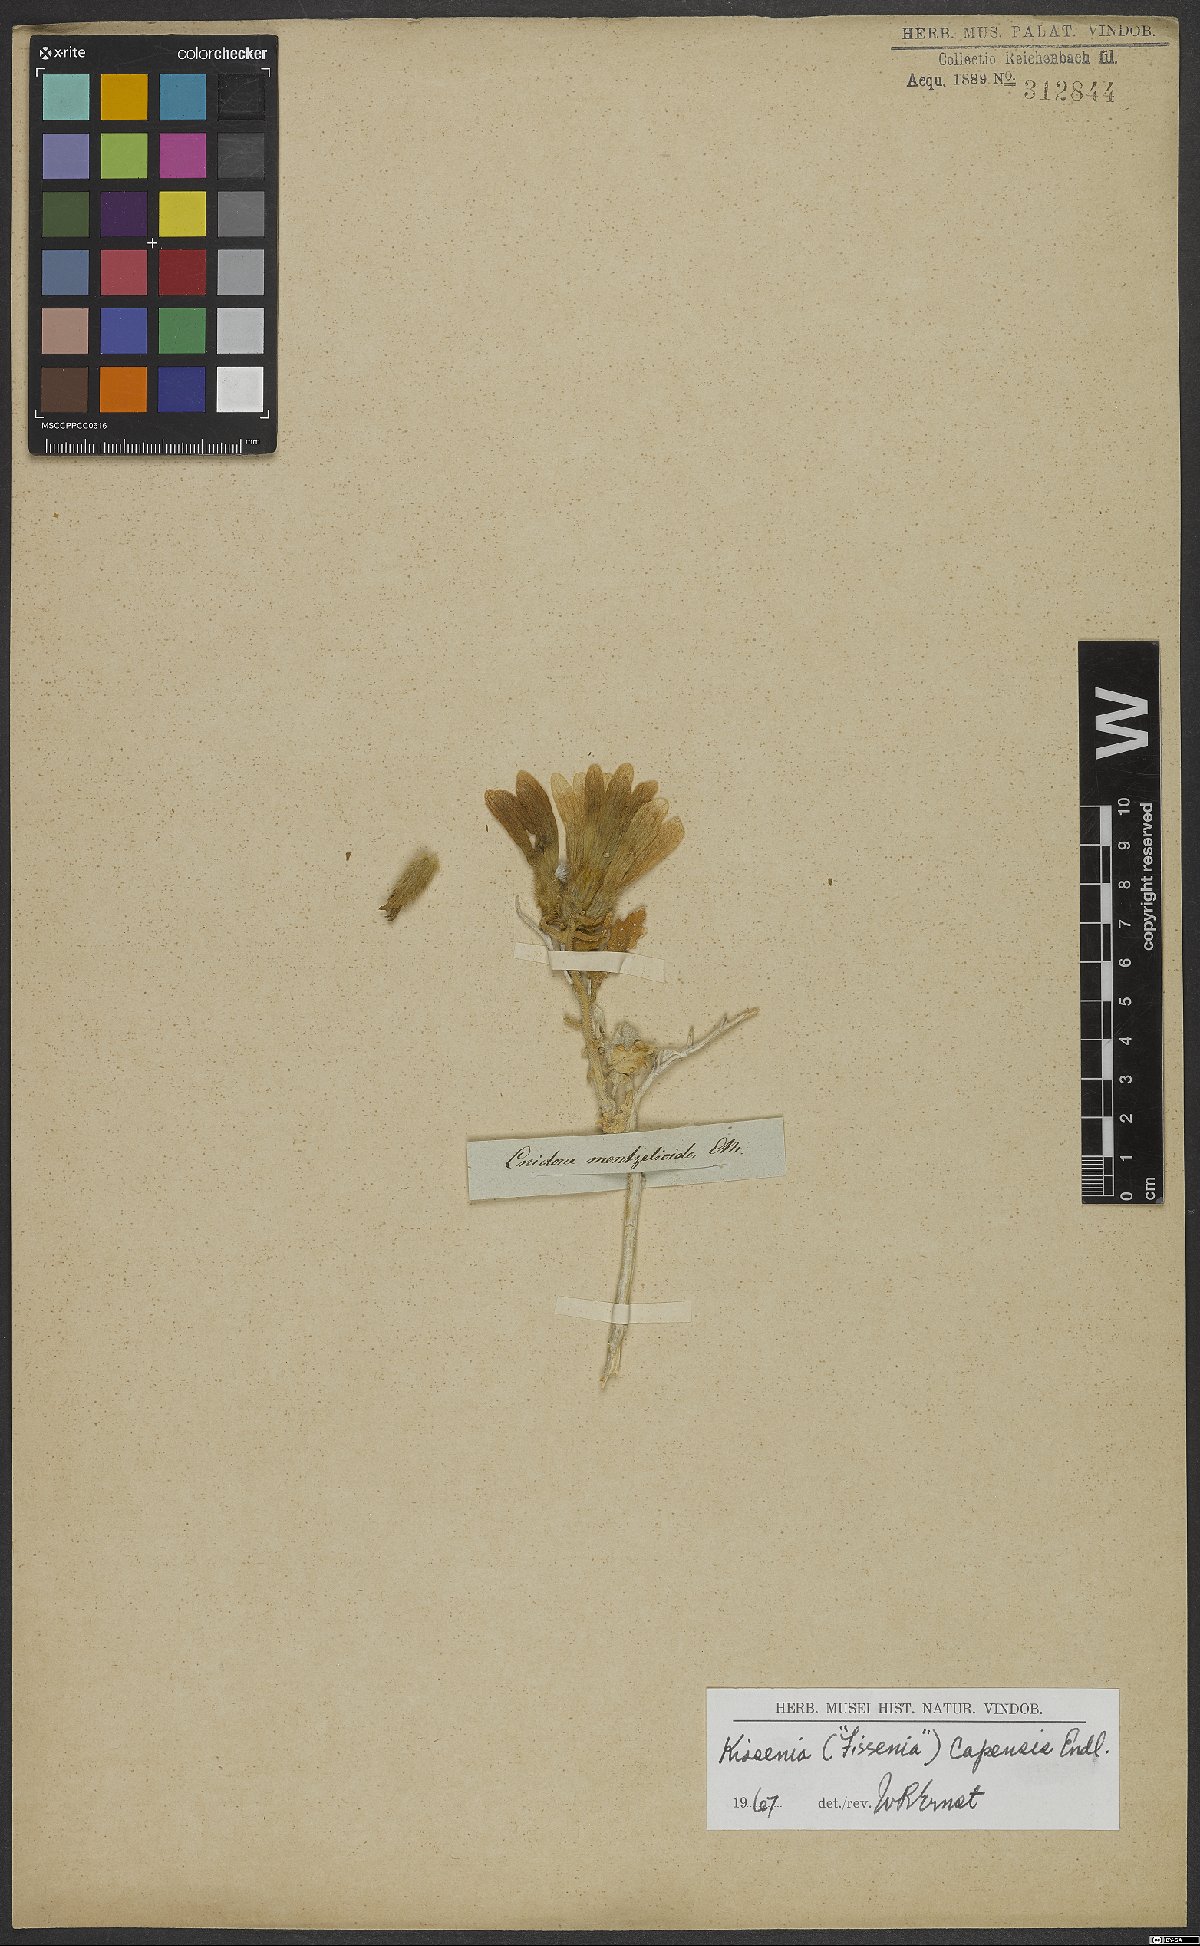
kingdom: Plantae
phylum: Tracheophyta
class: Magnoliopsida
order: Cornales
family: Loasaceae
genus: Kissenia
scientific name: Kissenia capensis
